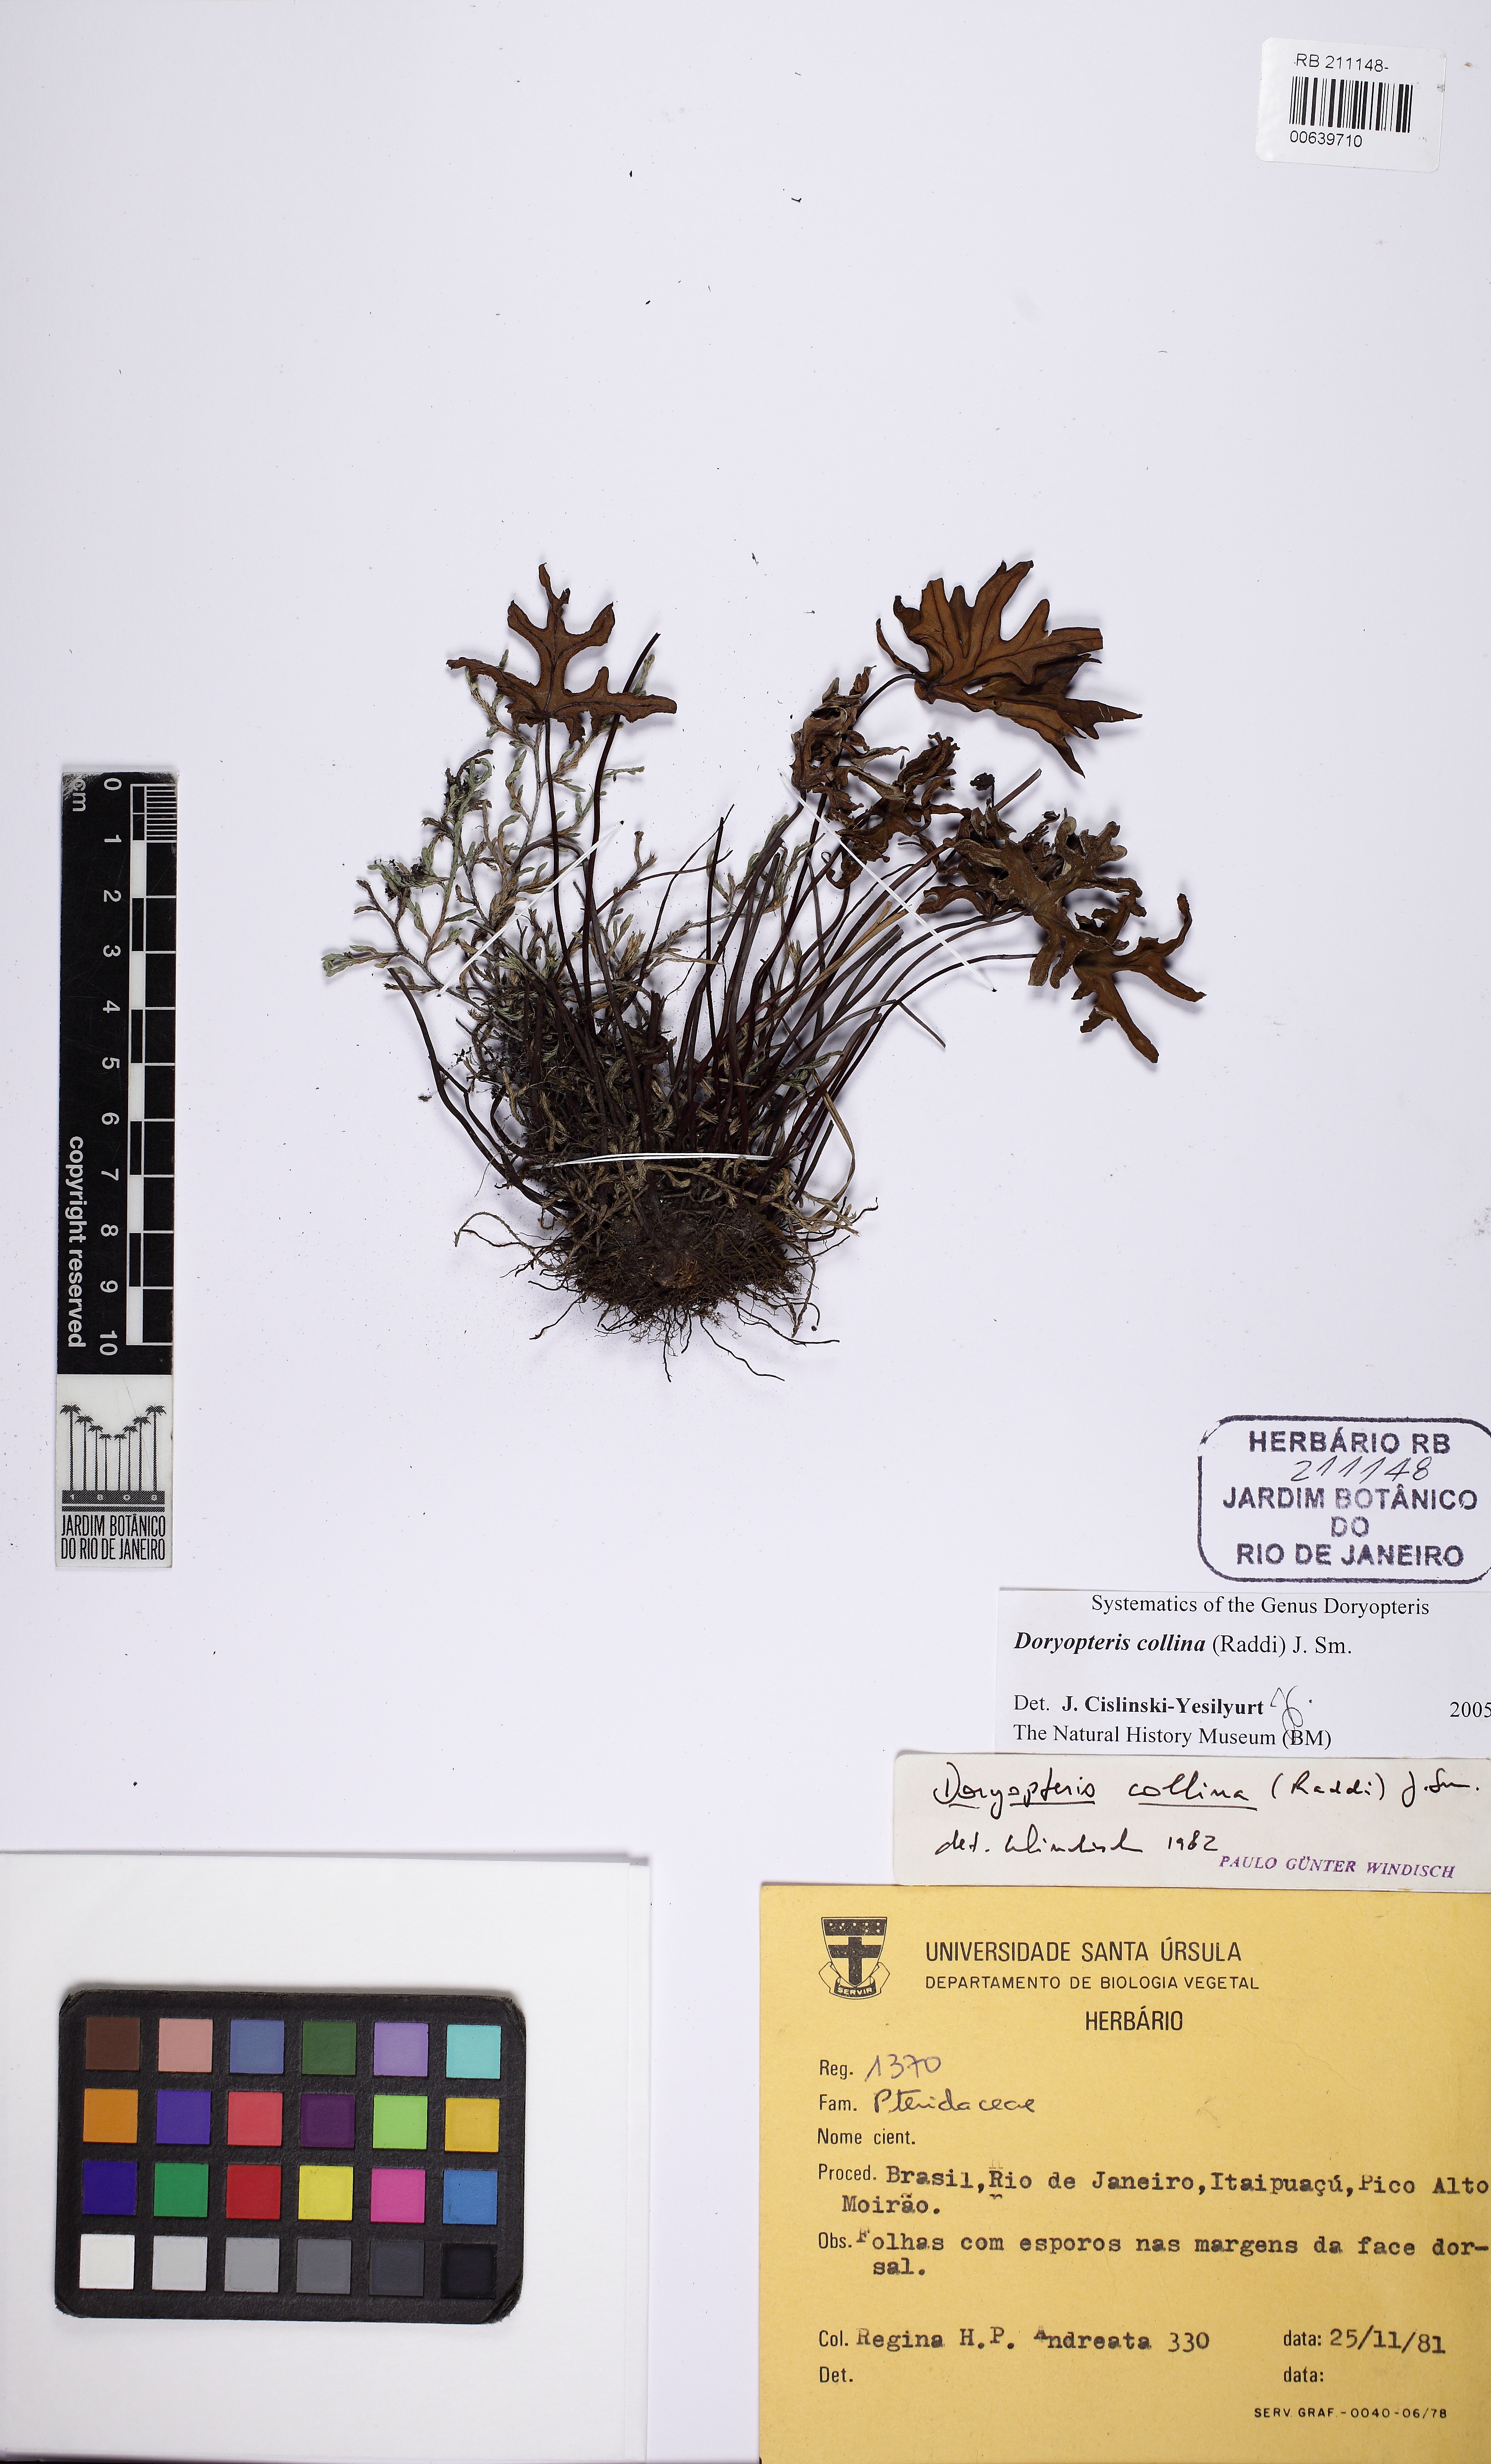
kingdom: Plantae
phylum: Tracheophyta
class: Polypodiopsida
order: Polypodiales
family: Pteridaceae
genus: Doryopteris
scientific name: Doryopteris collina
